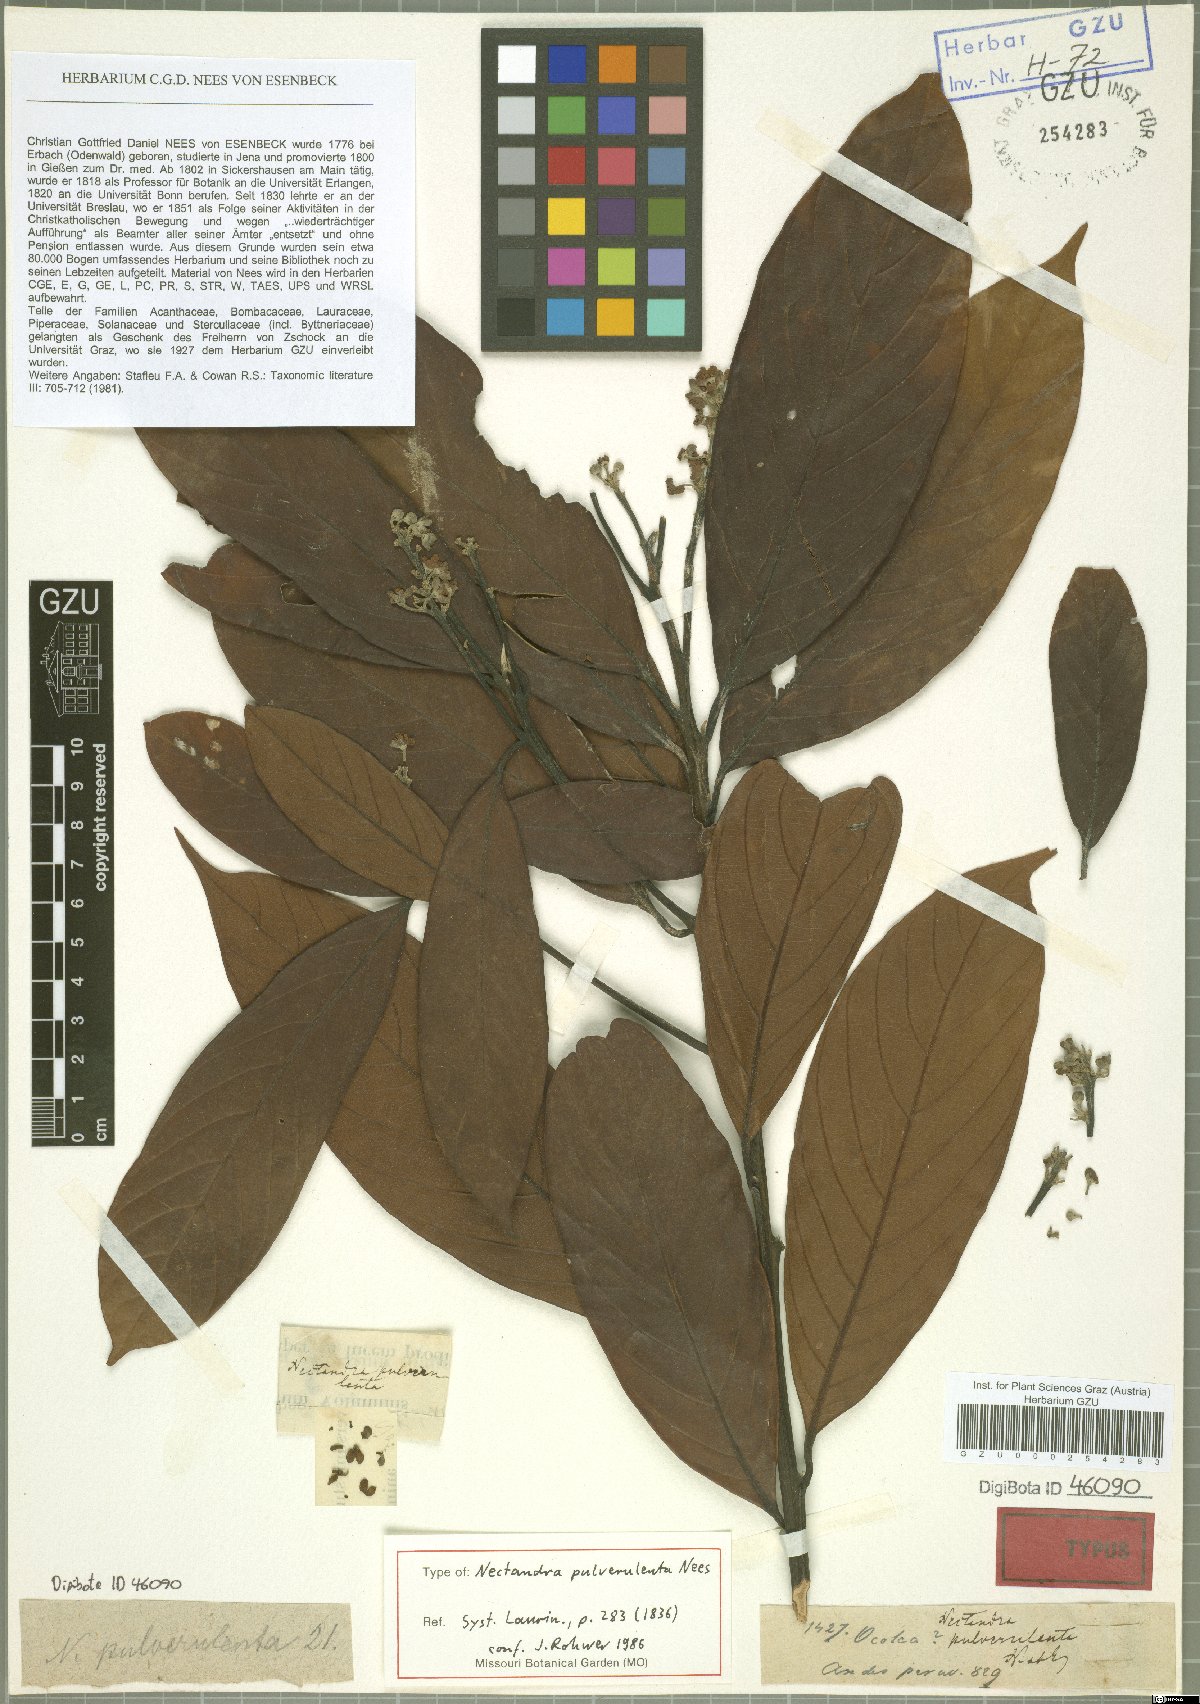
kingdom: Plantae
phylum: Tracheophyta
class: Magnoliopsida
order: Laurales
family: Lauraceae
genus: Nectandra
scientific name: Nectandra pulverulenta
